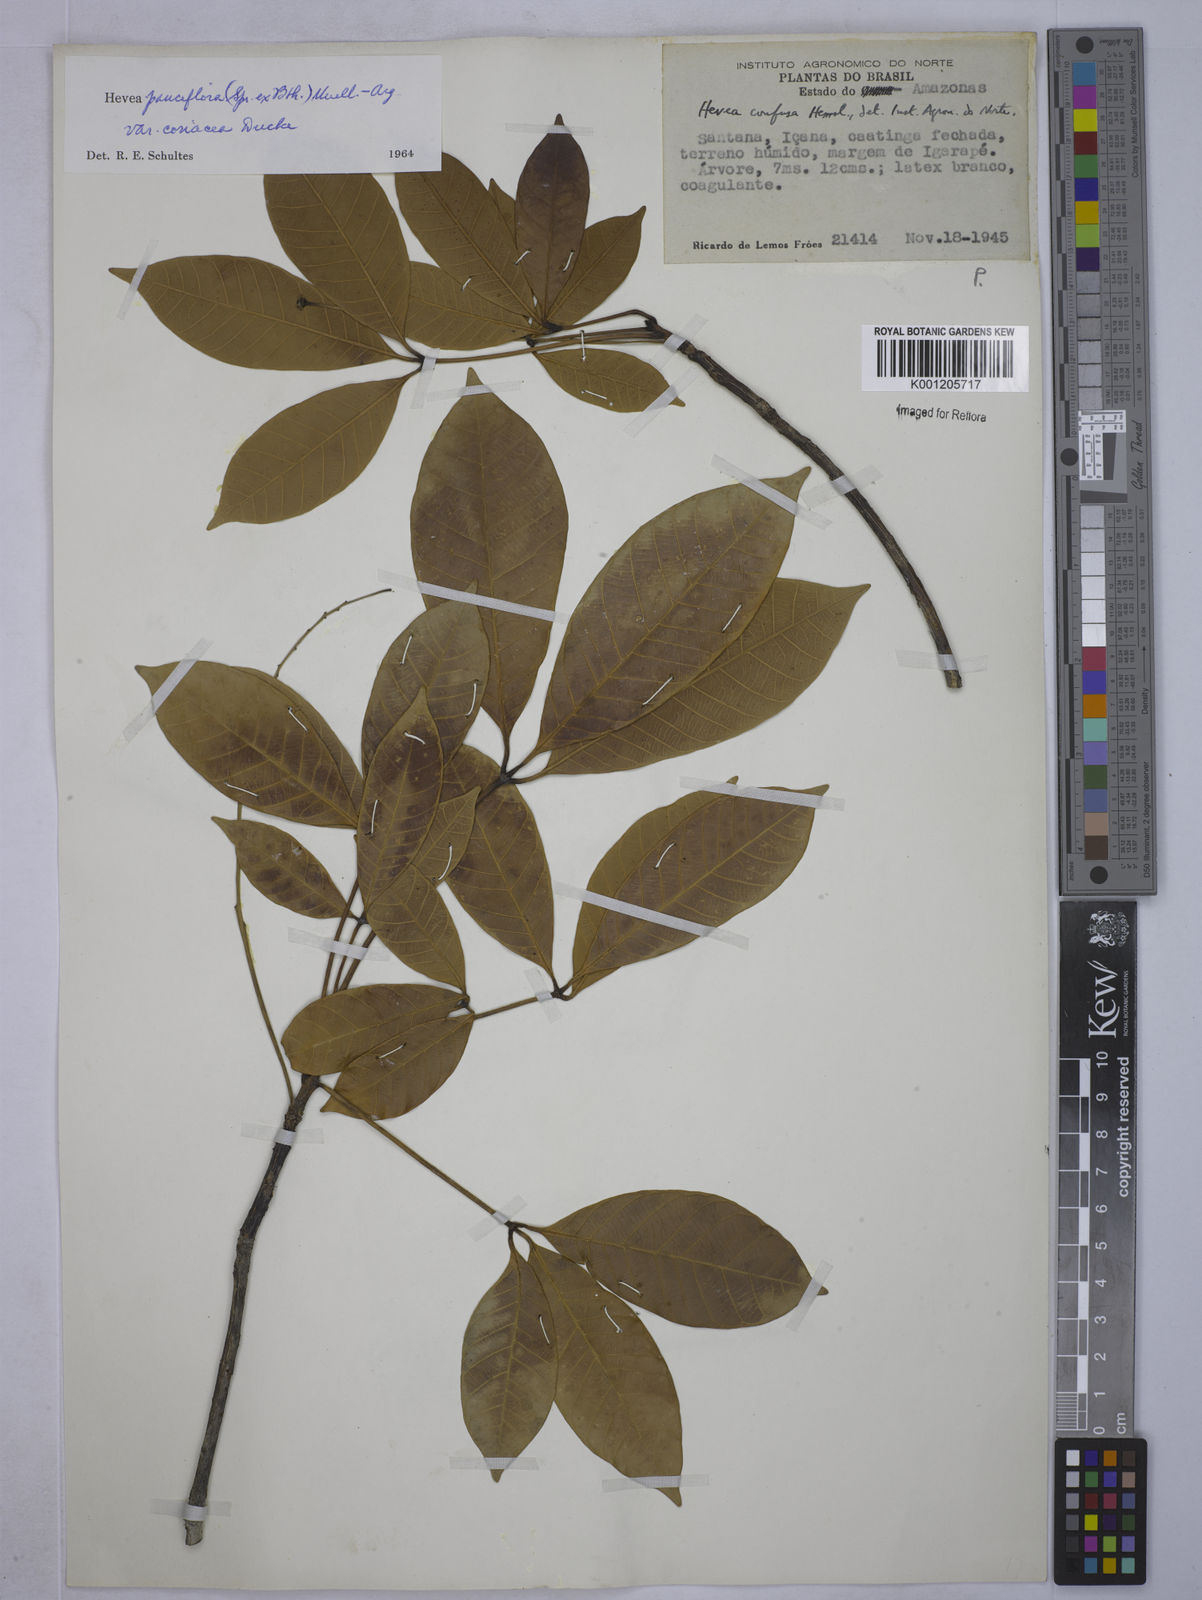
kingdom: Plantae
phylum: Tracheophyta
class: Magnoliopsida
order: Malpighiales
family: Euphorbiaceae
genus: Hevea
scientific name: Hevea pauciflora
